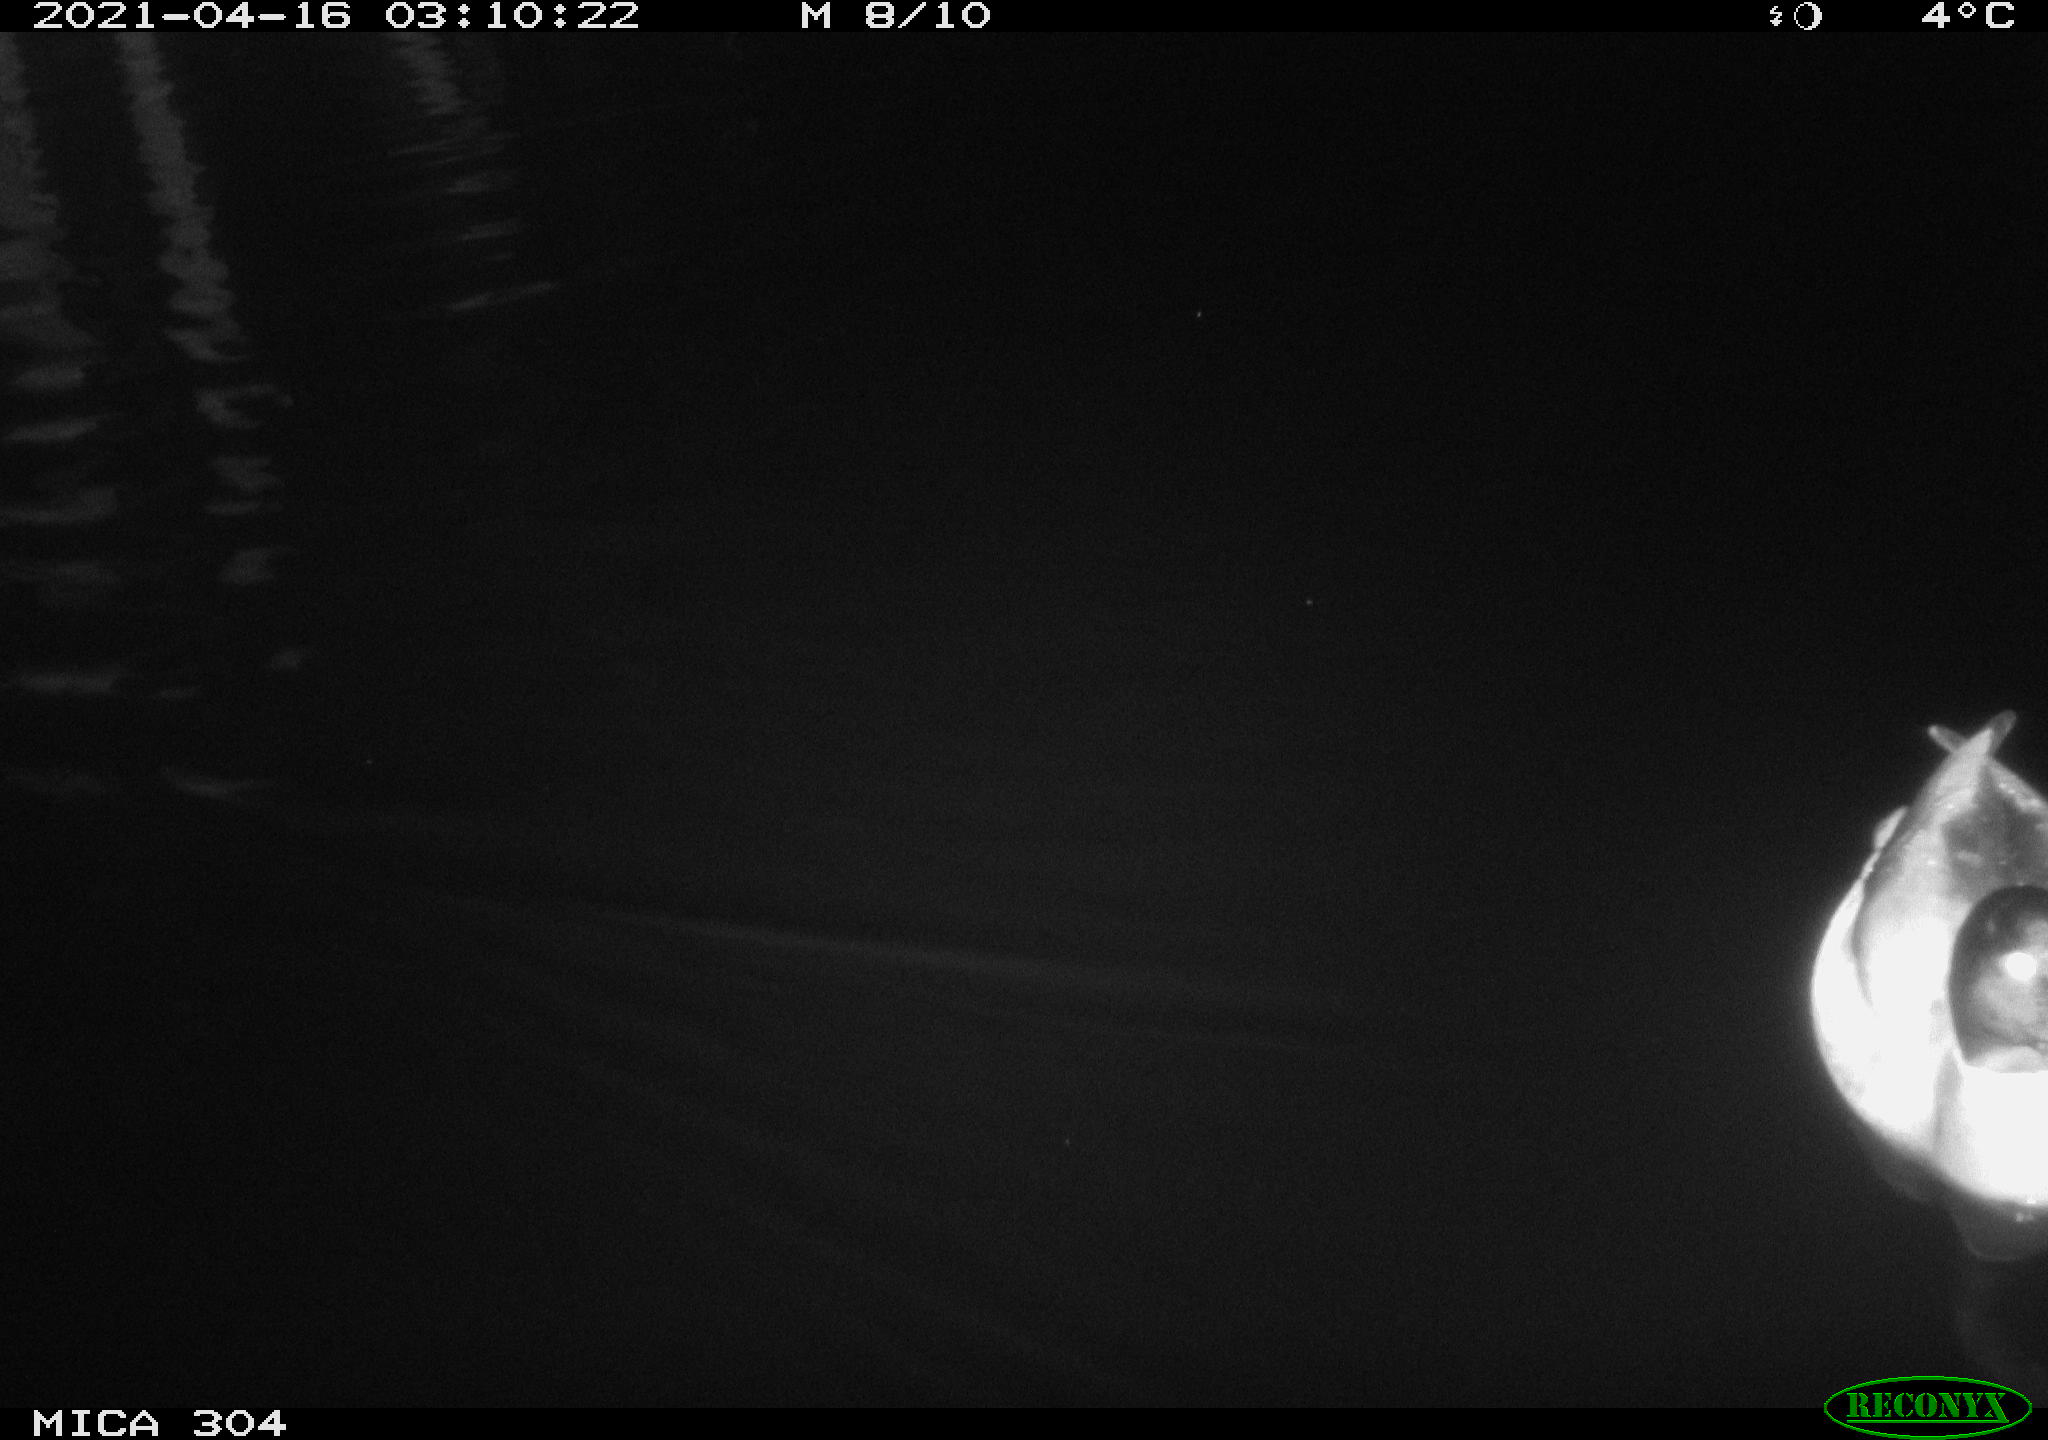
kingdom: Animalia
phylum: Chordata
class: Aves
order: Anseriformes
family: Anatidae
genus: Anas
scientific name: Anas
